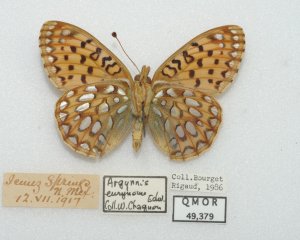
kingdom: Animalia
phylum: Arthropoda
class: Insecta
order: Lepidoptera
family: Nymphalidae
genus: Speyeria
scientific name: Speyeria mormonia
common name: Mormon Fritillary
